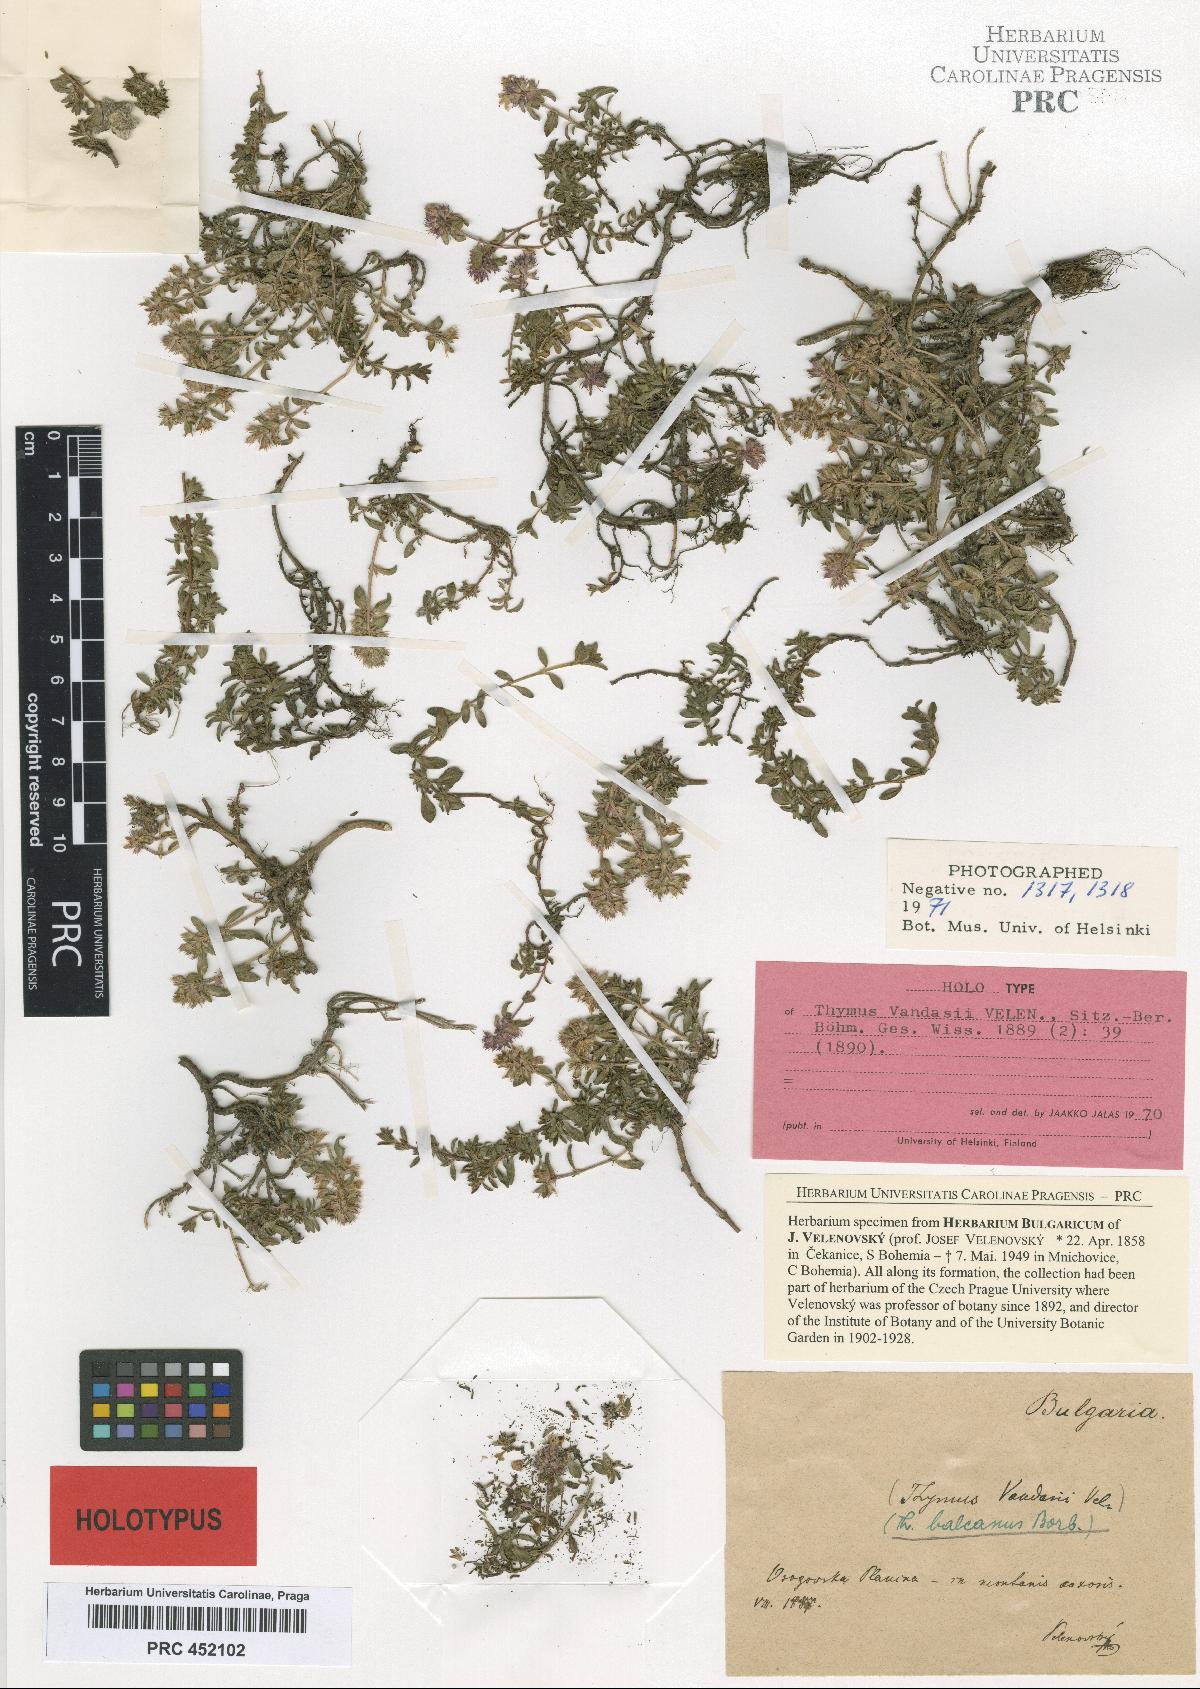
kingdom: Plantae
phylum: Tracheophyta
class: Magnoliopsida
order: Lamiales
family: Lamiaceae
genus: Thymus
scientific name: Thymus praecox
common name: Wild thyme
